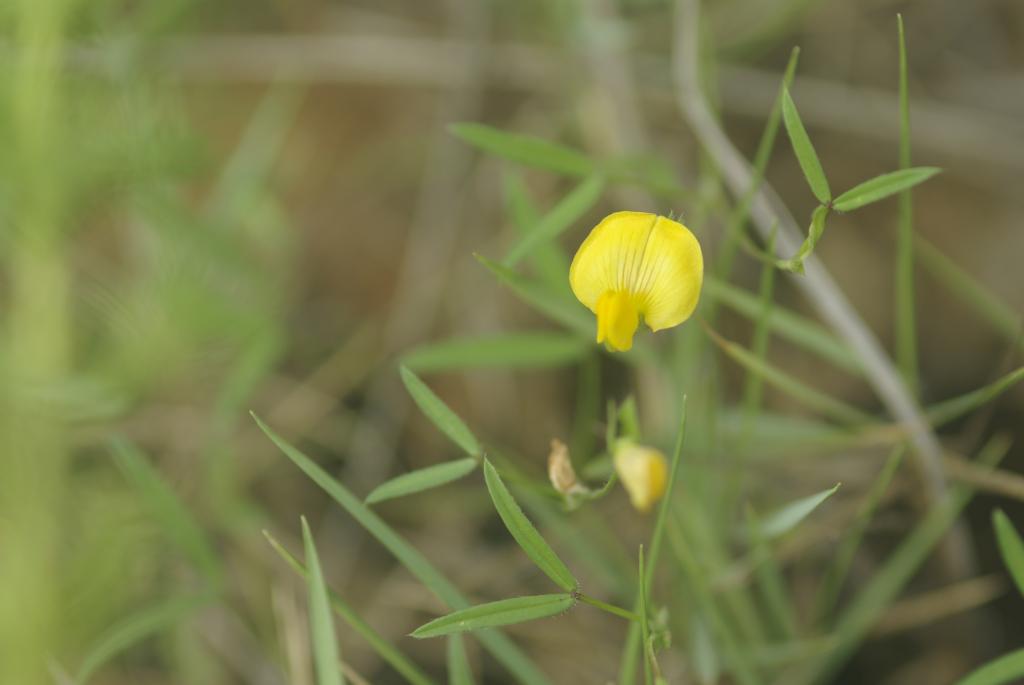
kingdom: Plantae
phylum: Tracheophyta
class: Magnoliopsida
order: Fabales
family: Fabaceae
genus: Zornia
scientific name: Zornia gibbosa
